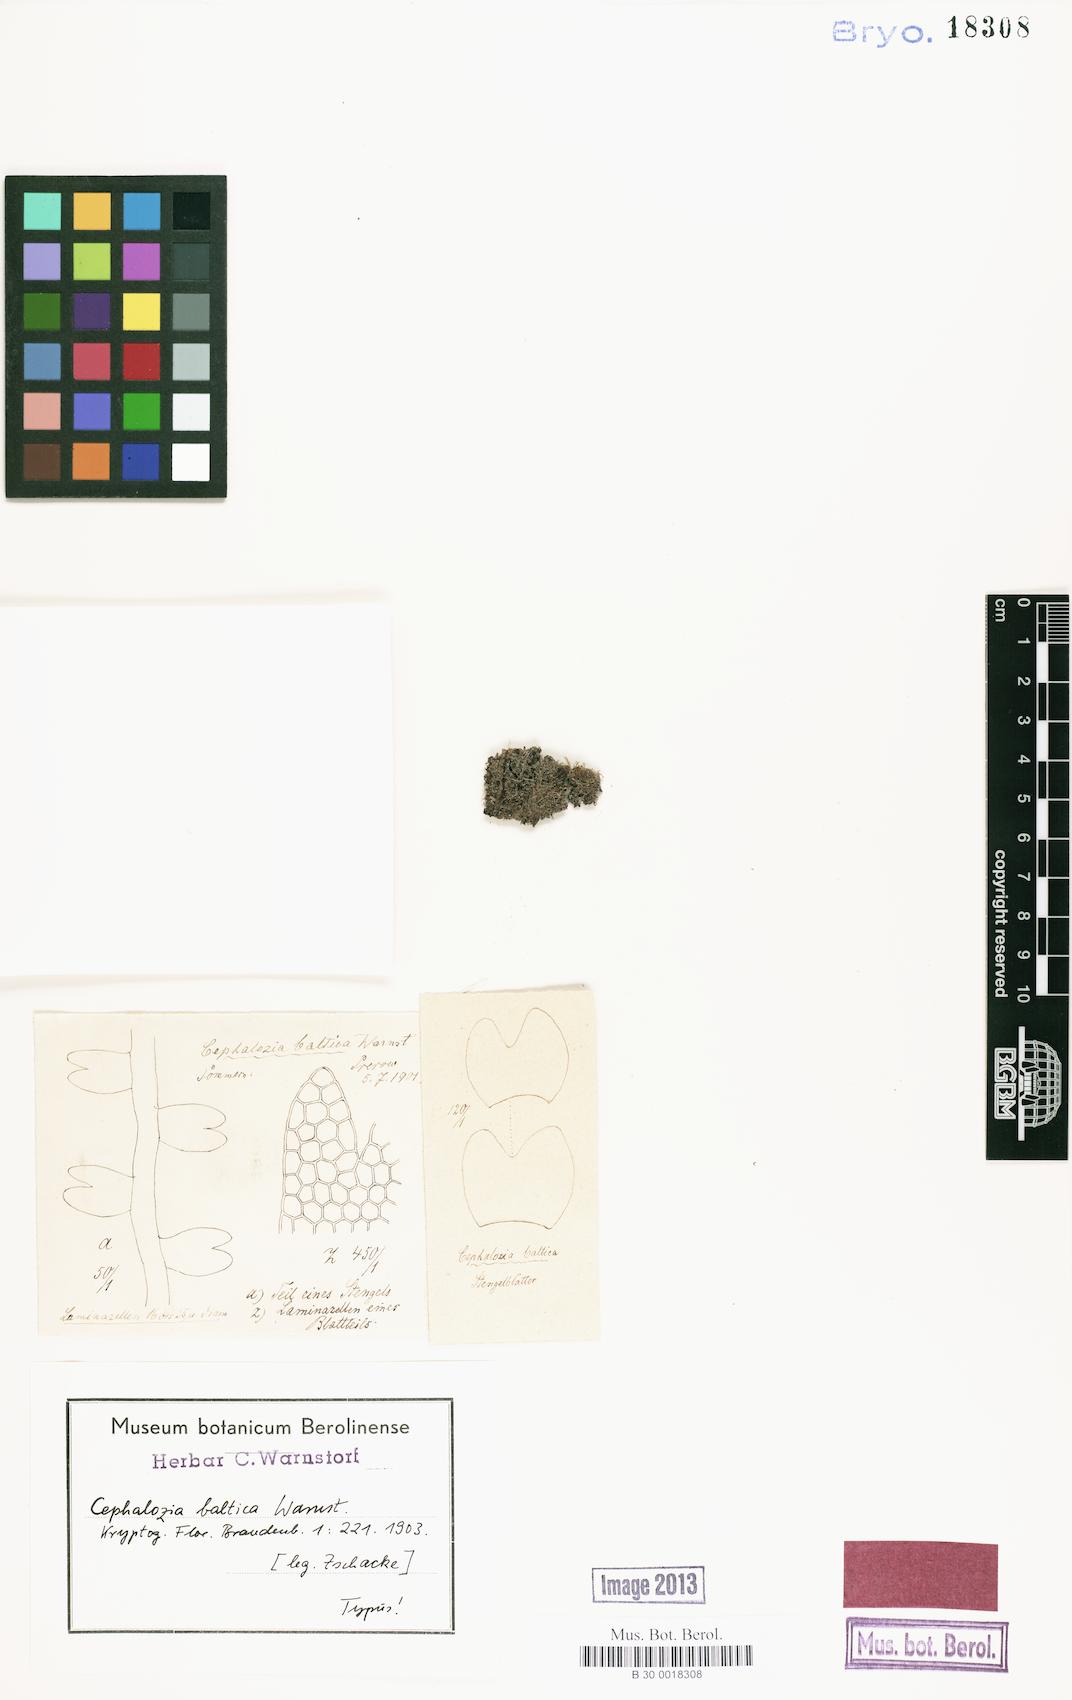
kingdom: Plantae
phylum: Marchantiophyta
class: Jungermanniopsida
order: Jungermanniales
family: Cephaloziaceae
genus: Odontoschisma
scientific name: Odontoschisma francisci
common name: Holt notchwort
